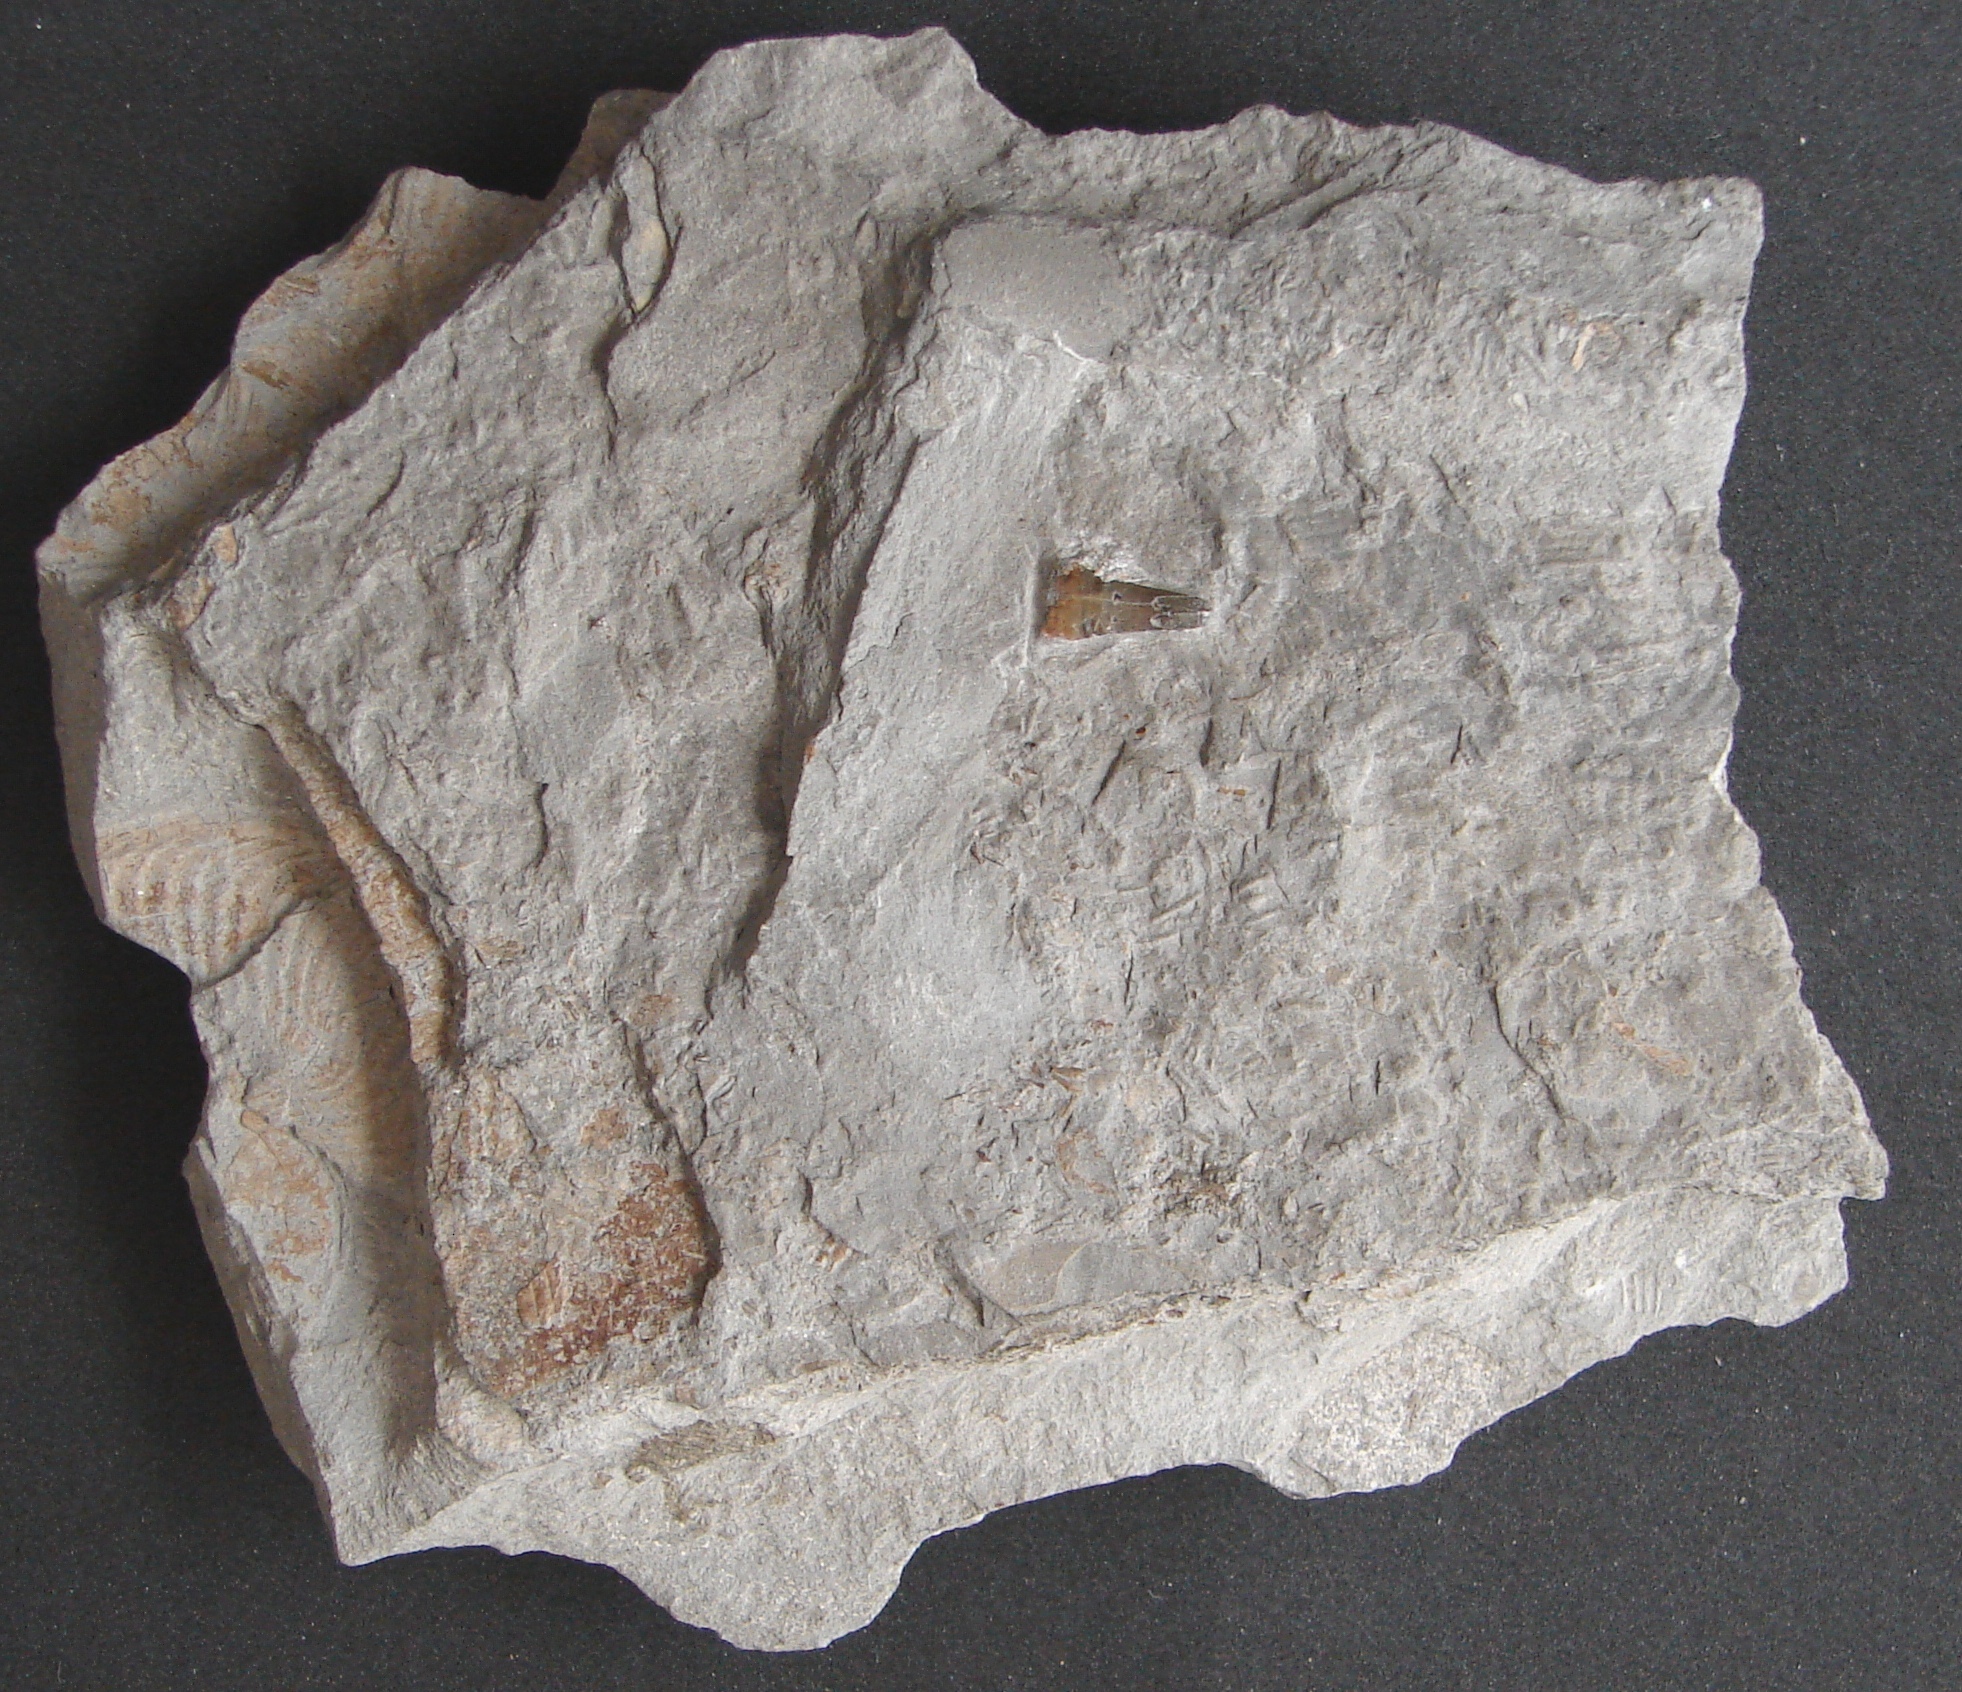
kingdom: Animalia
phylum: Chordata
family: Stenopterygiidae
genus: Stenopterygius
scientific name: Stenopterygius
